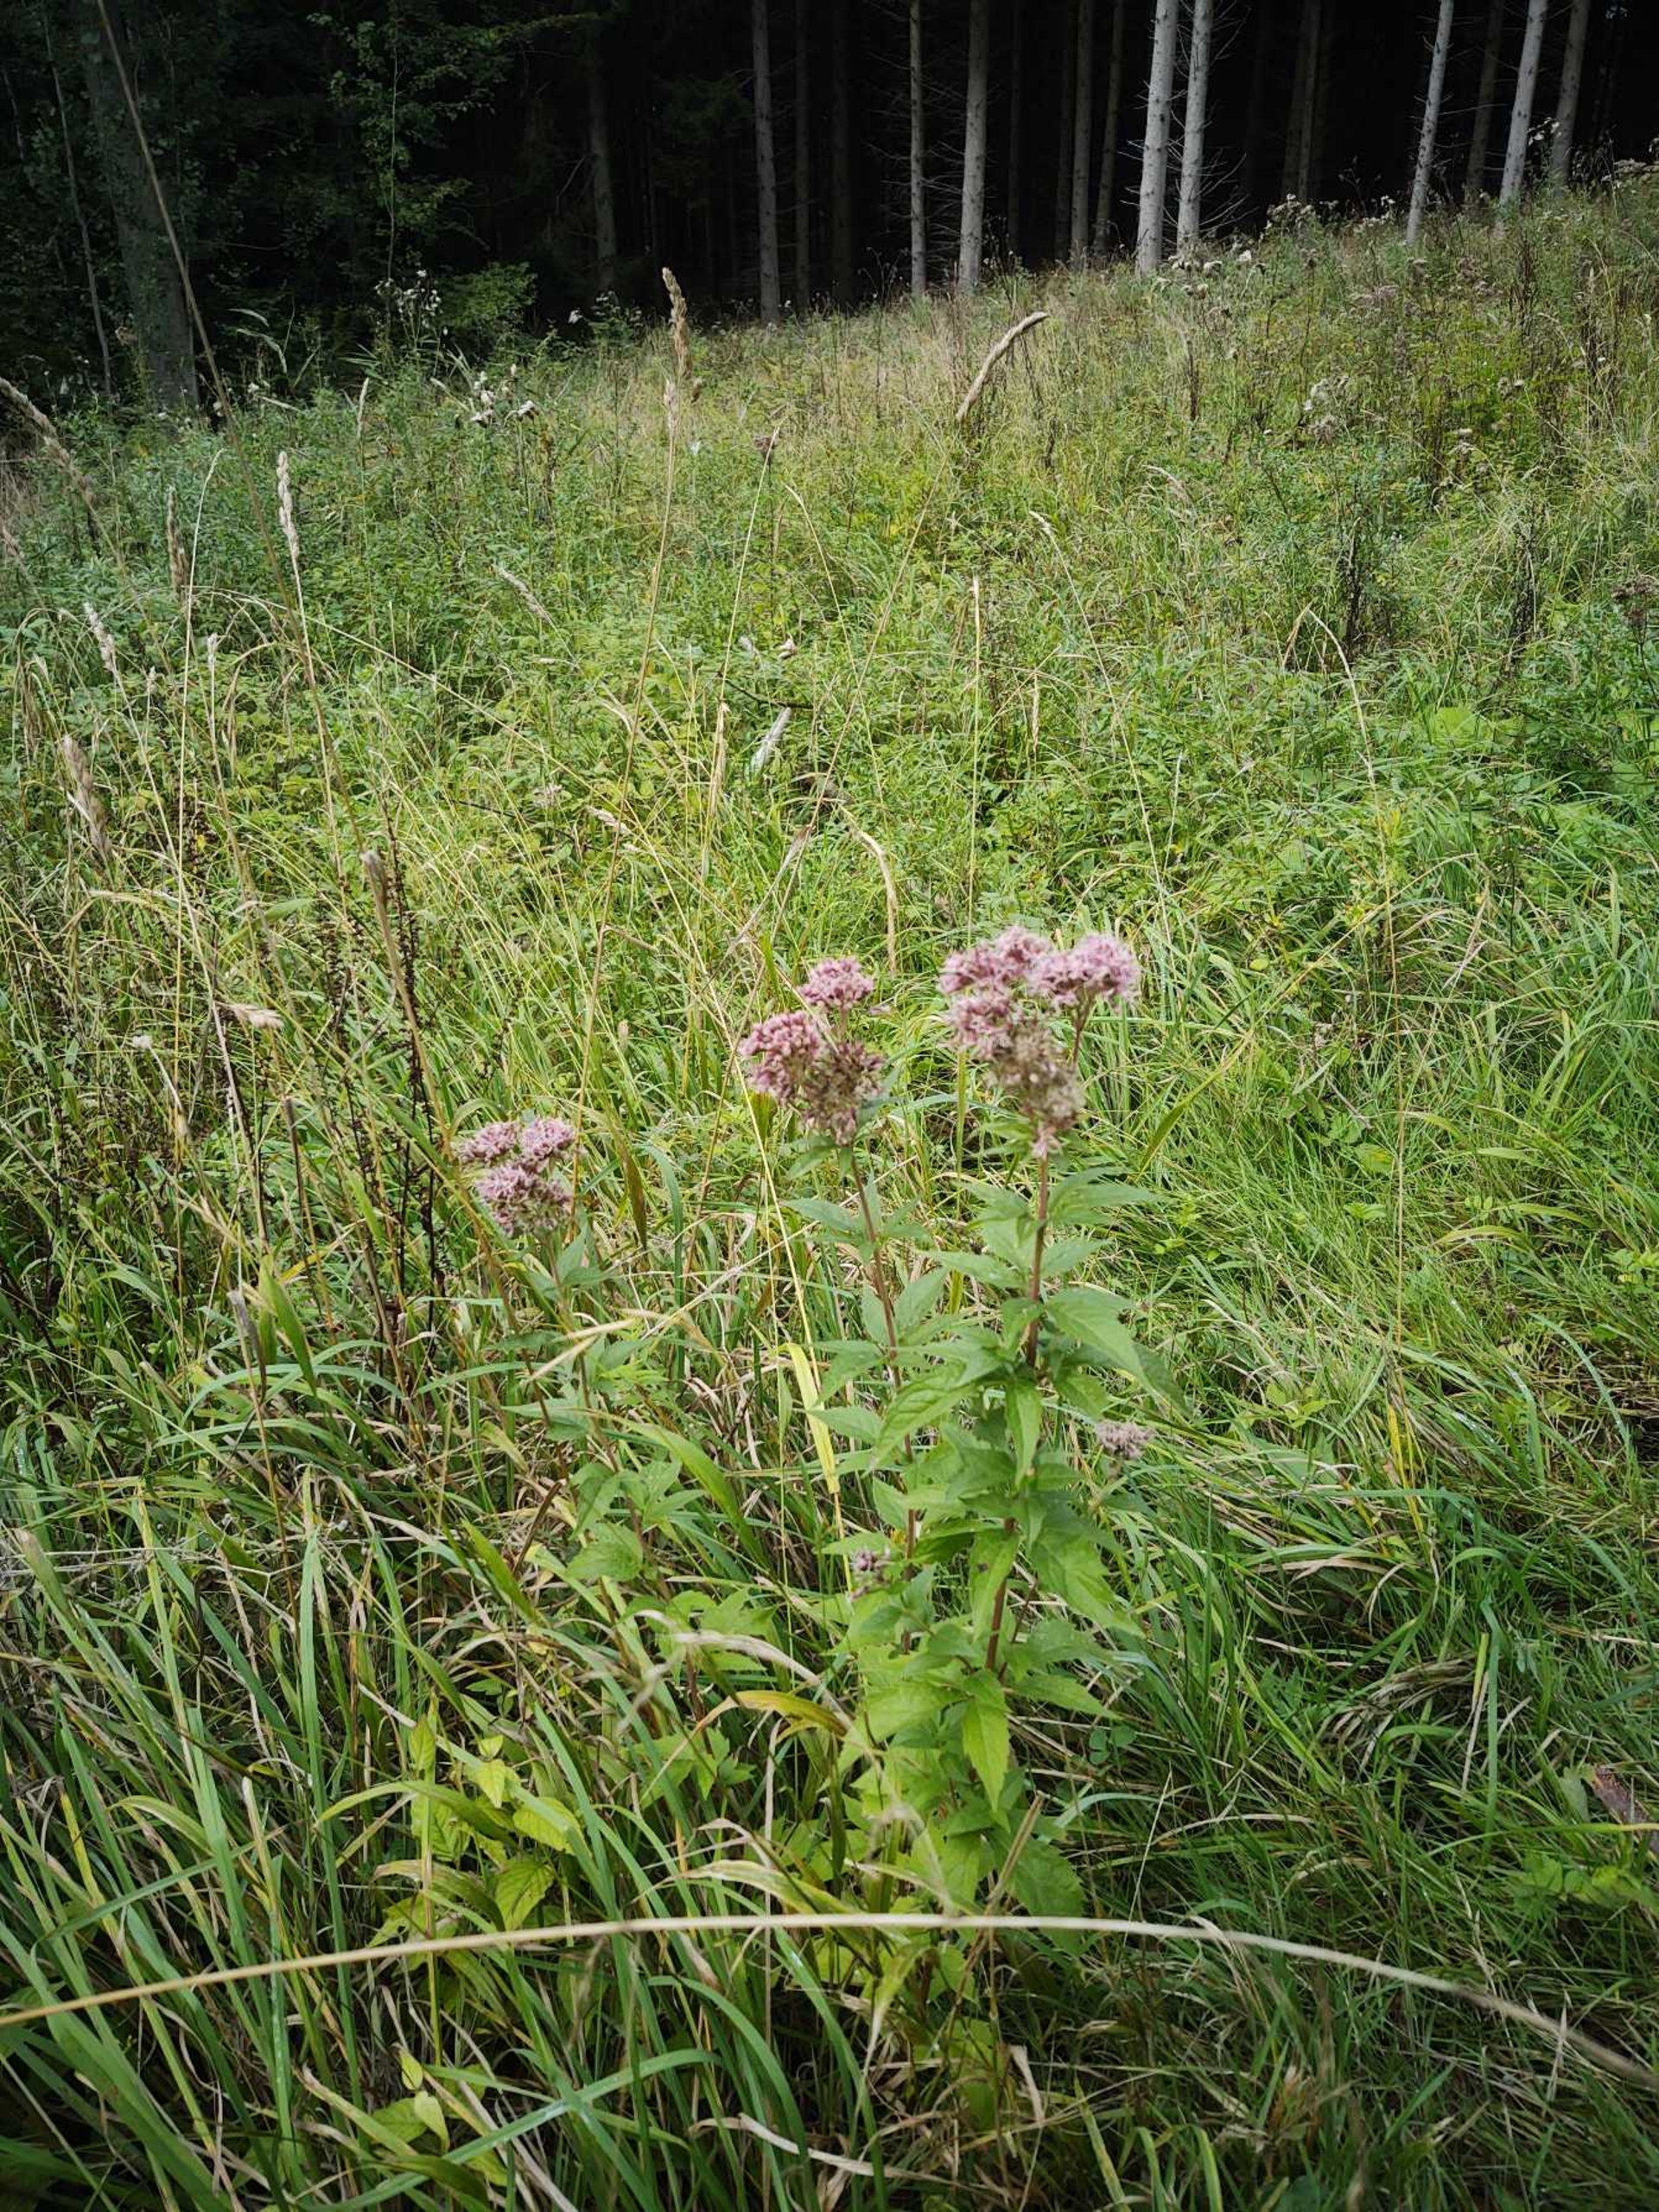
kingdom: Plantae
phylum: Tracheophyta
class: Magnoliopsida
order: Asterales
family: Asteraceae
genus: Eupatorium
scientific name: Eupatorium cannabinum
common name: Hjortetrøst
